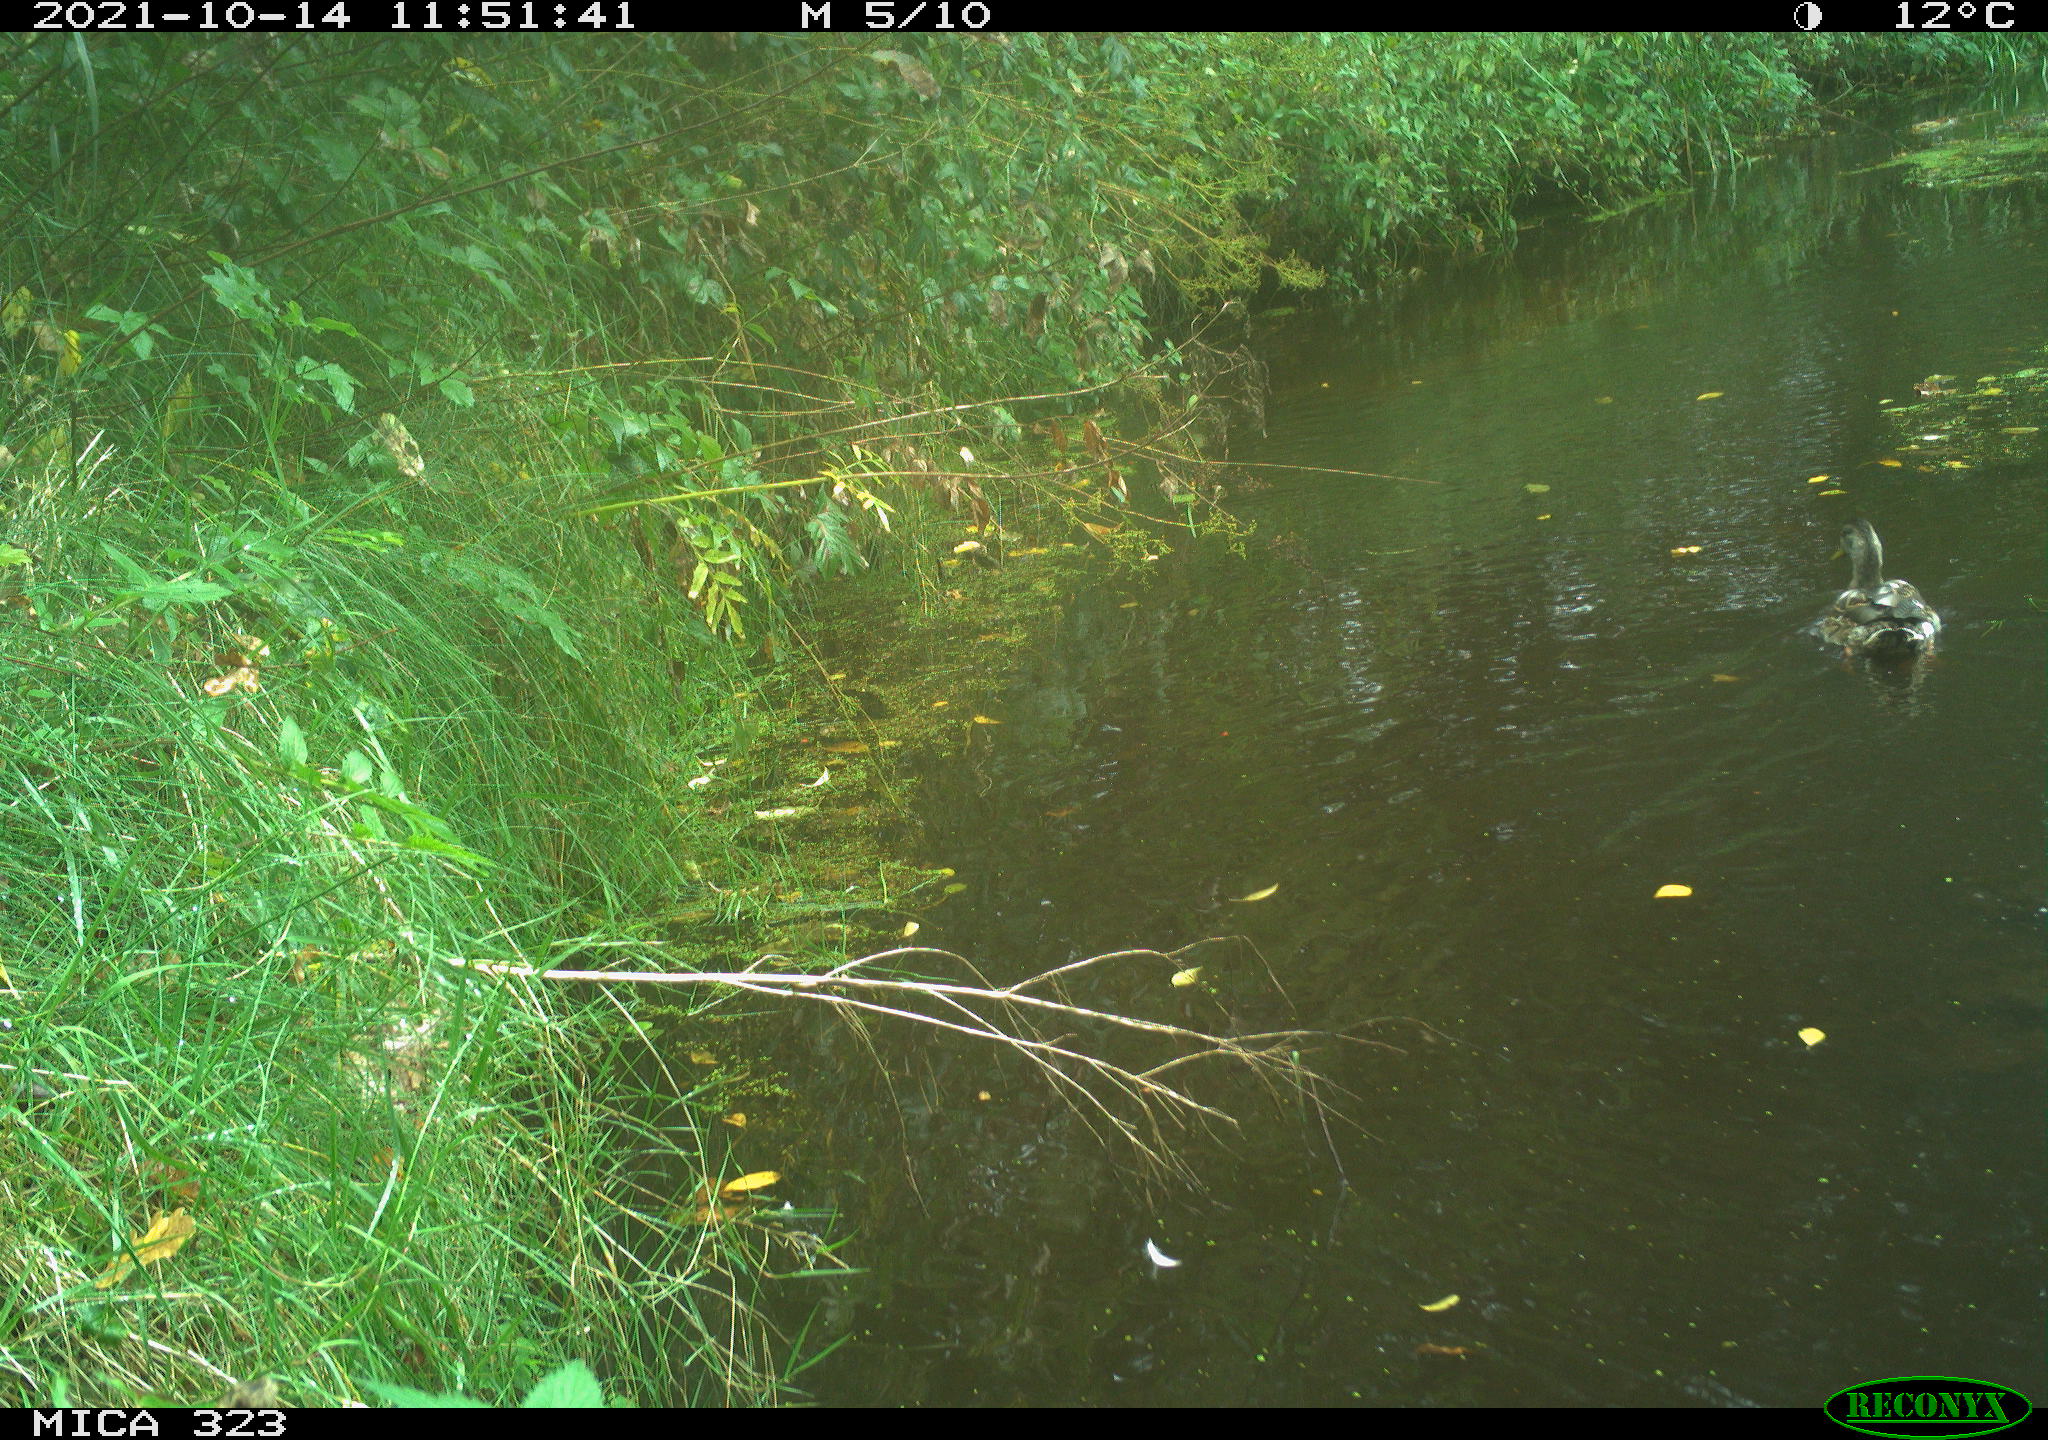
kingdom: Animalia
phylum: Chordata
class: Aves
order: Anseriformes
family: Anatidae
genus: Anas
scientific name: Anas platyrhynchos
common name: Mallard
